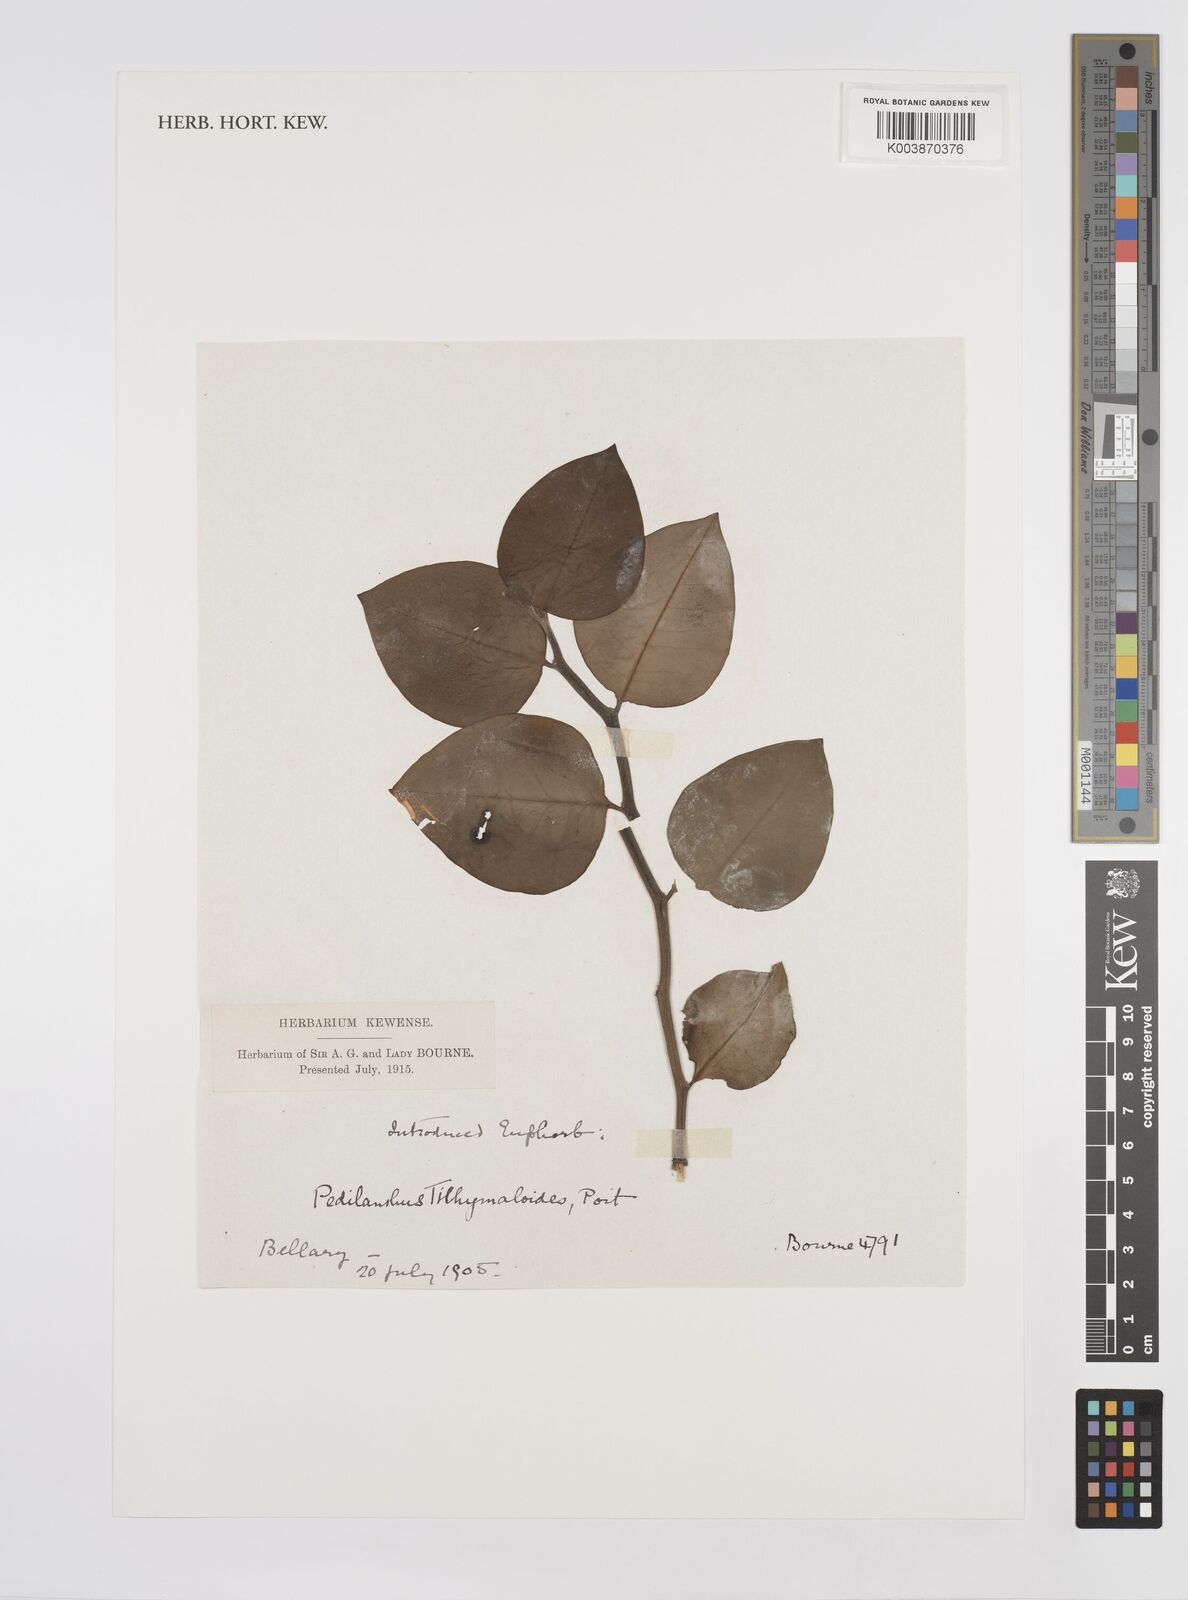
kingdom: Plantae
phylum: Tracheophyta
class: Magnoliopsida
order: Malpighiales
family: Euphorbiaceae
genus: Euphorbia
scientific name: Euphorbia tithymaloides
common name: Slipperplant
